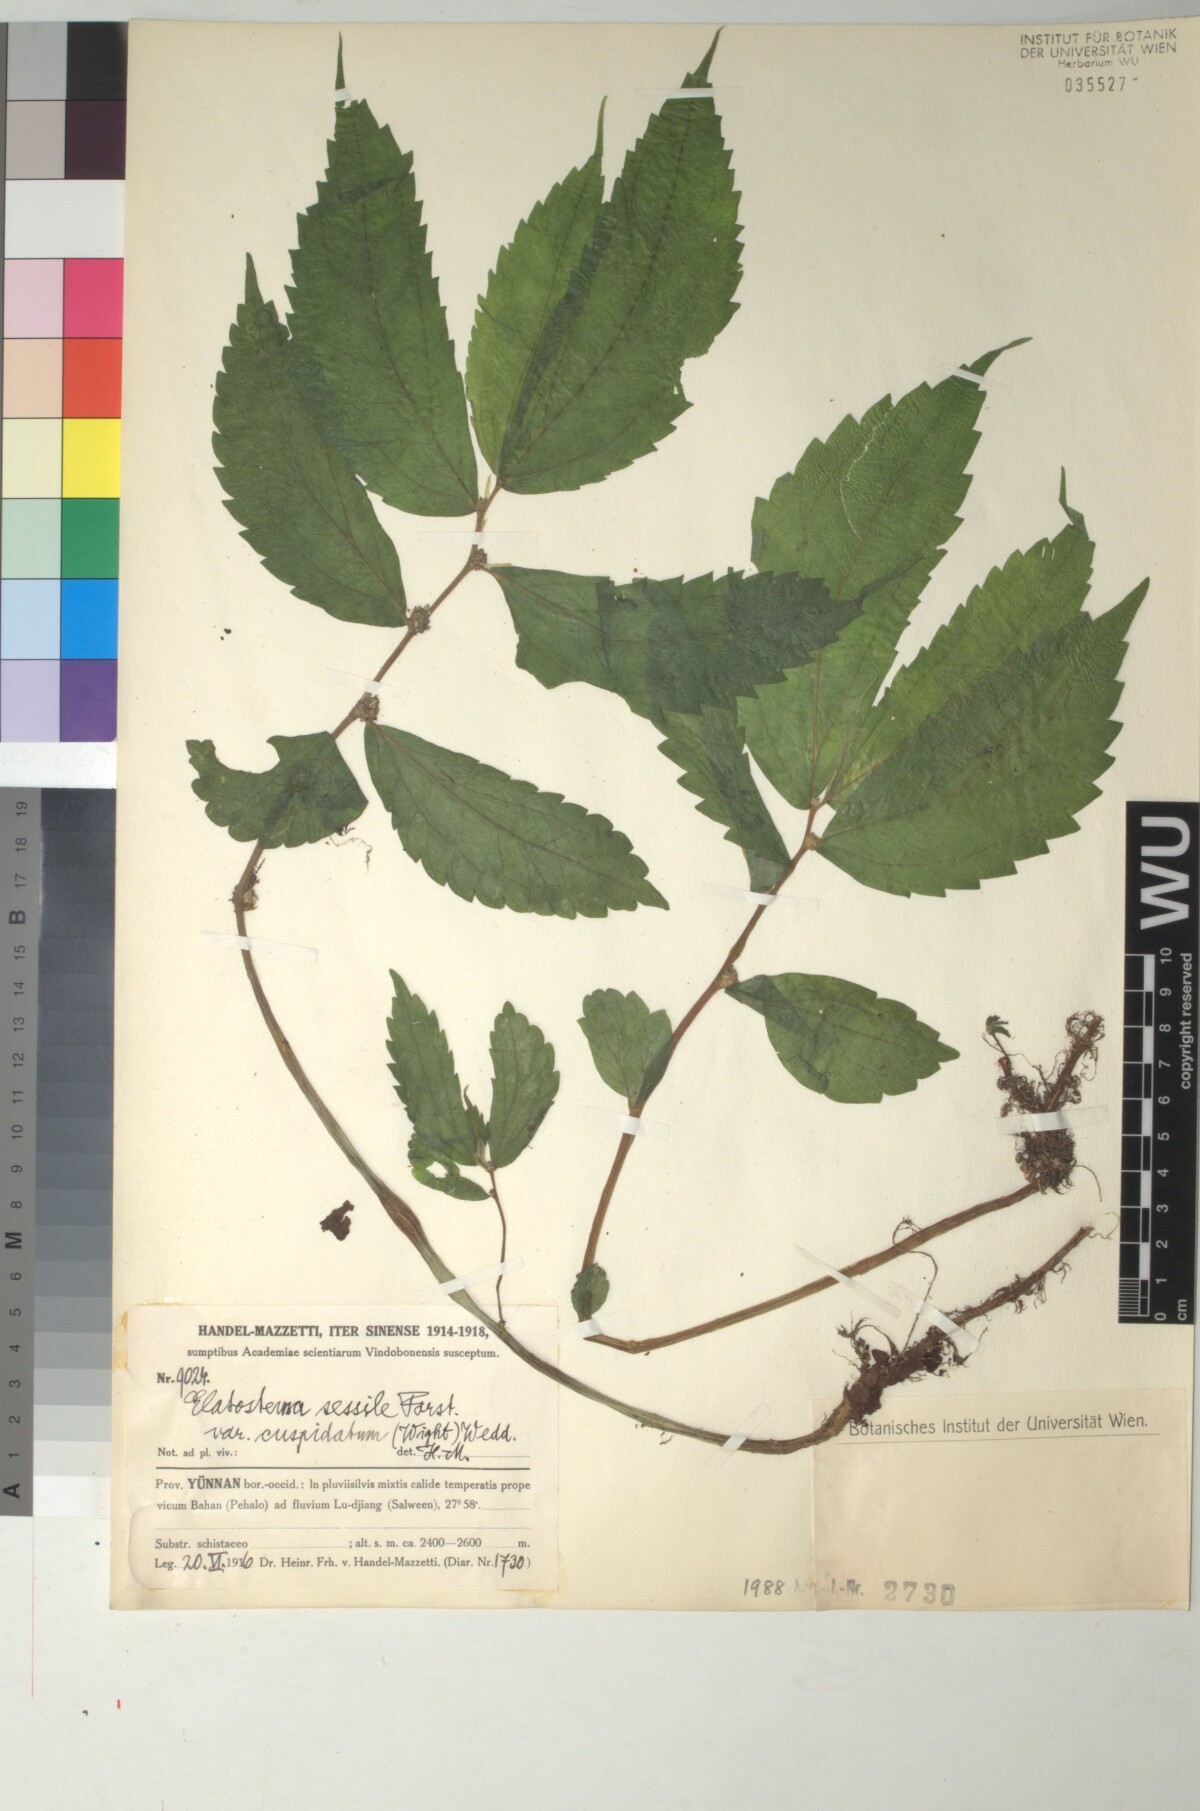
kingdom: Plantae
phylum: Tracheophyta
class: Magnoliopsida
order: Rosales
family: Urticaceae
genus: Elatostema
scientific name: Elatostema cuspidatum
